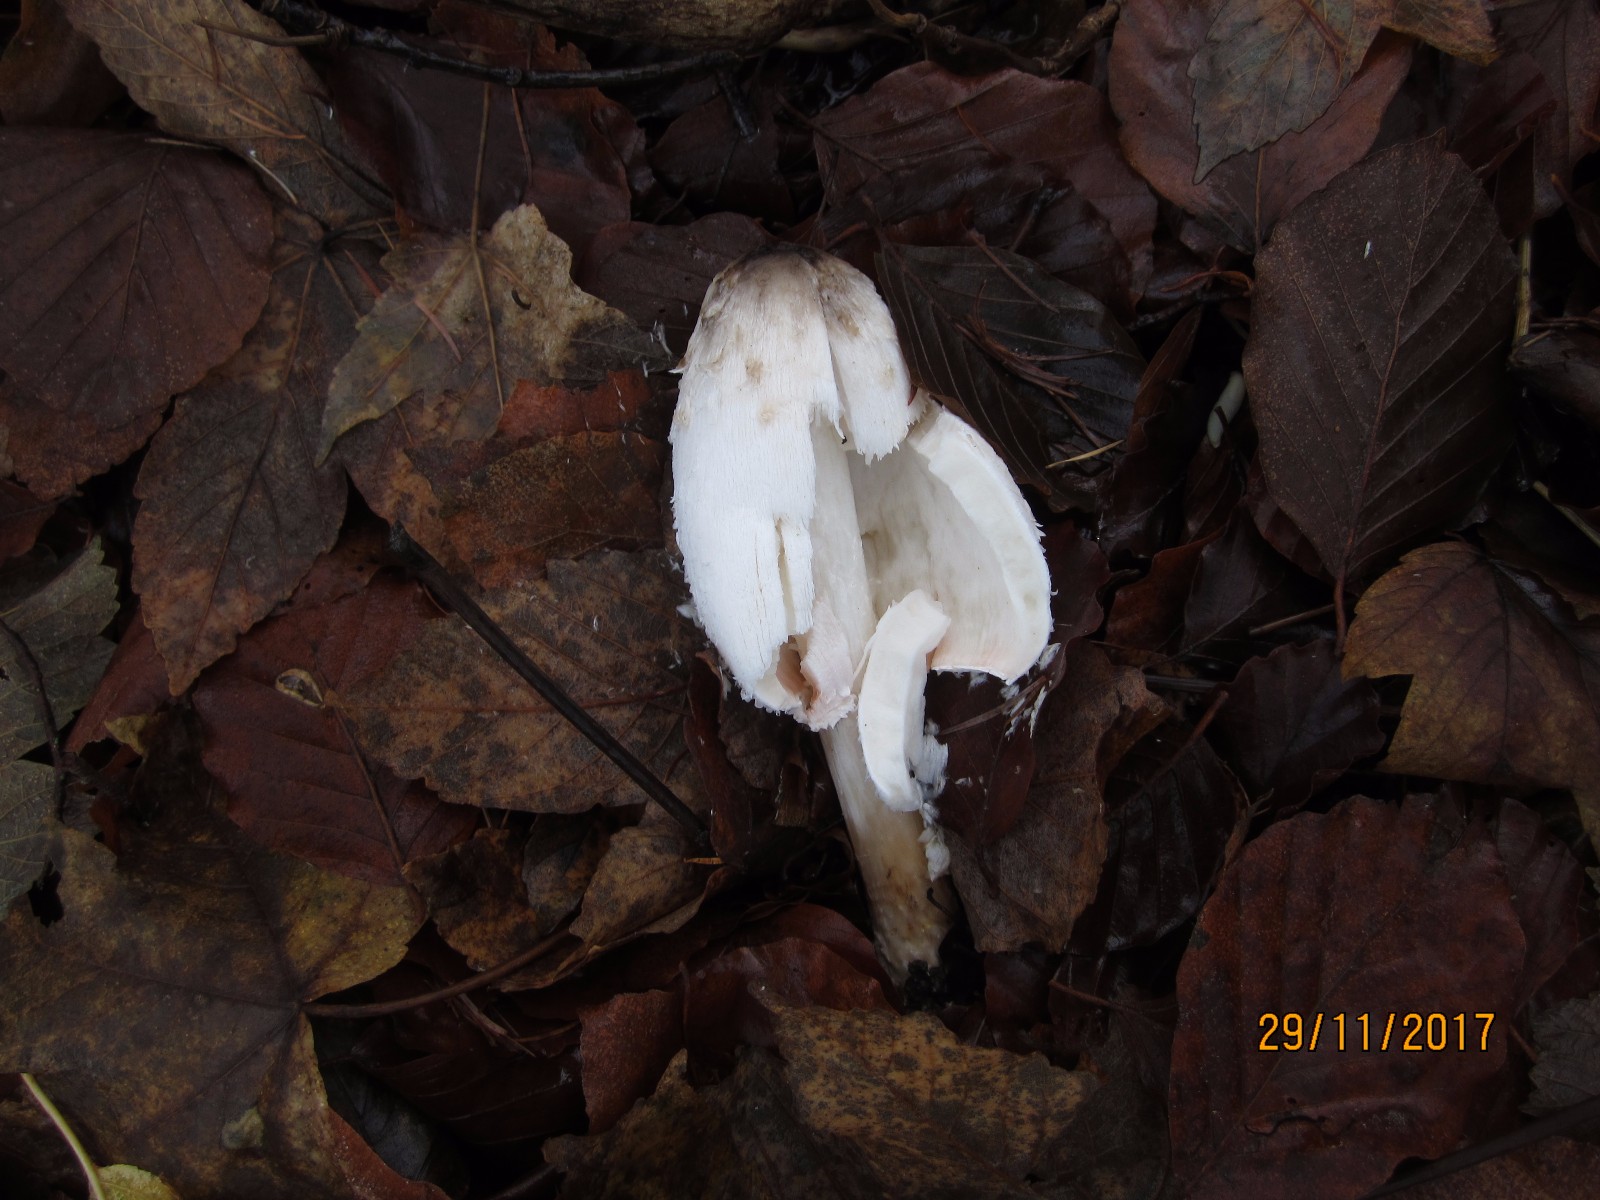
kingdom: Fungi
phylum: Basidiomycota
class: Agaricomycetes
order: Agaricales
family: Agaricaceae
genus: Coprinus
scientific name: Coprinus comatus
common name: stor parykhat
